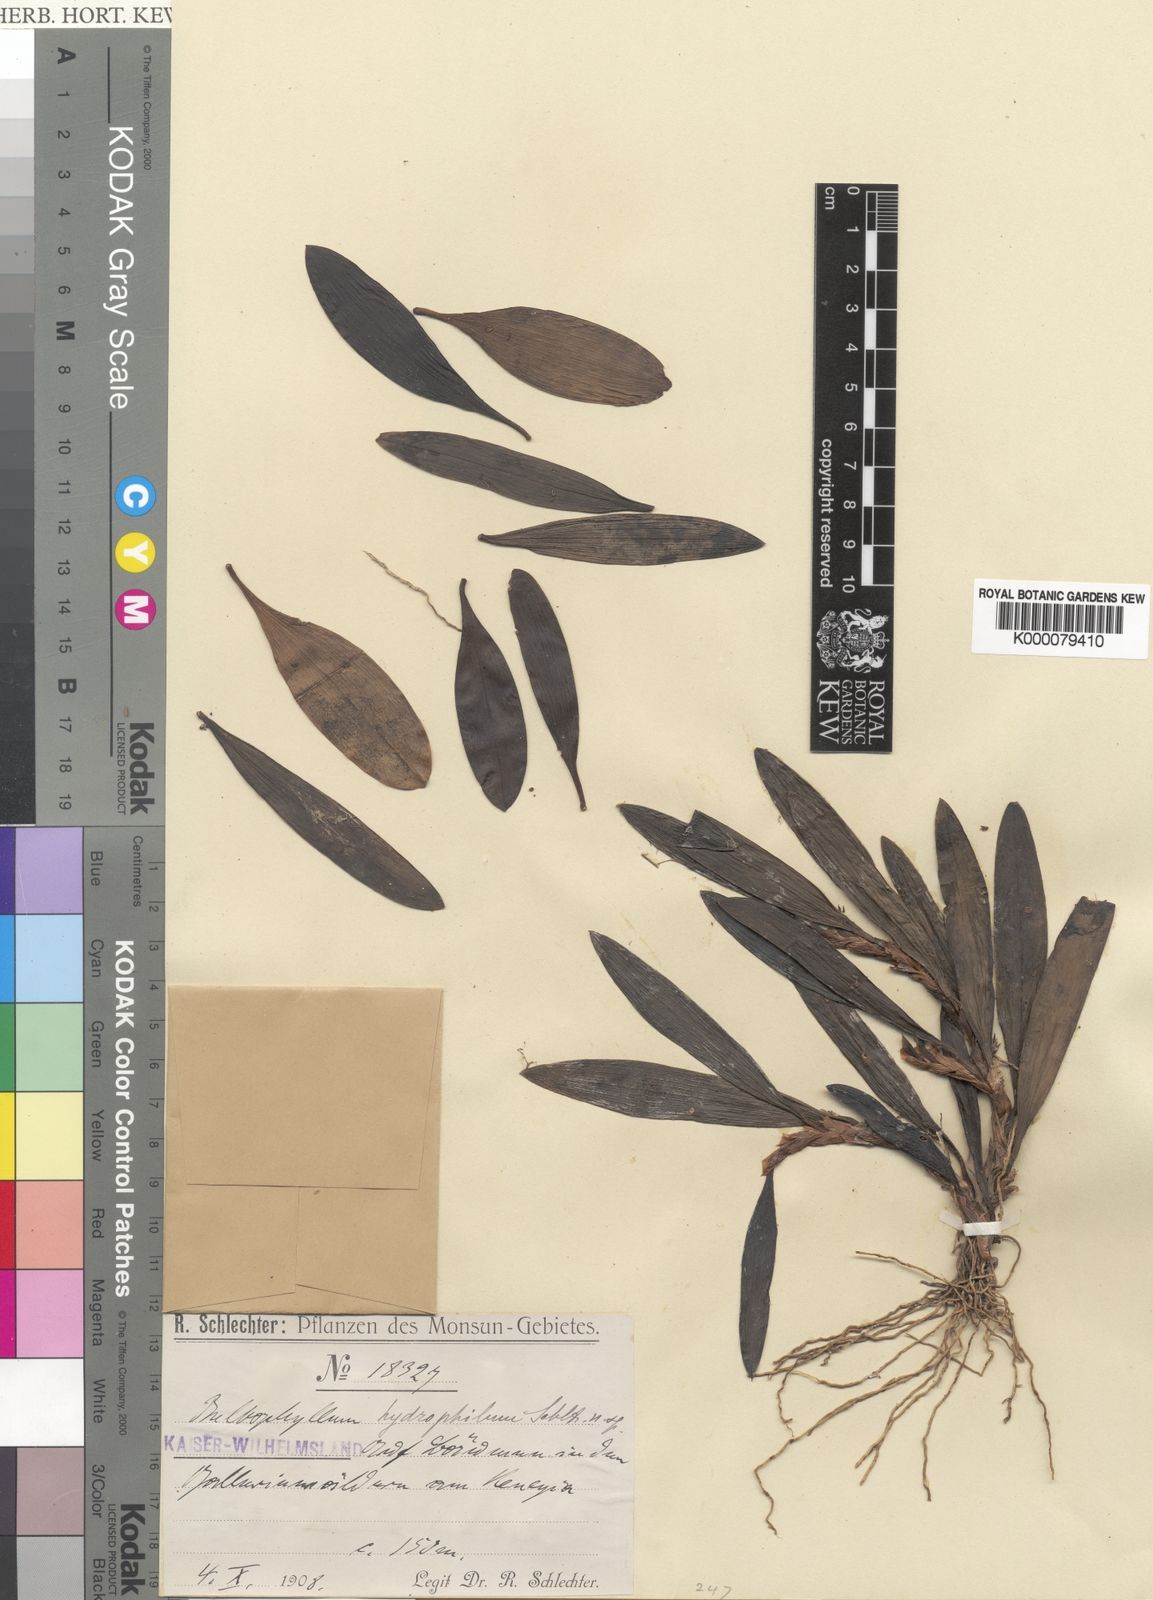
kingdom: Plantae
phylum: Tracheophyta
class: Liliopsida
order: Asparagales
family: Orchidaceae
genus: Bulbophyllum
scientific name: Bulbophyllum planitiae
